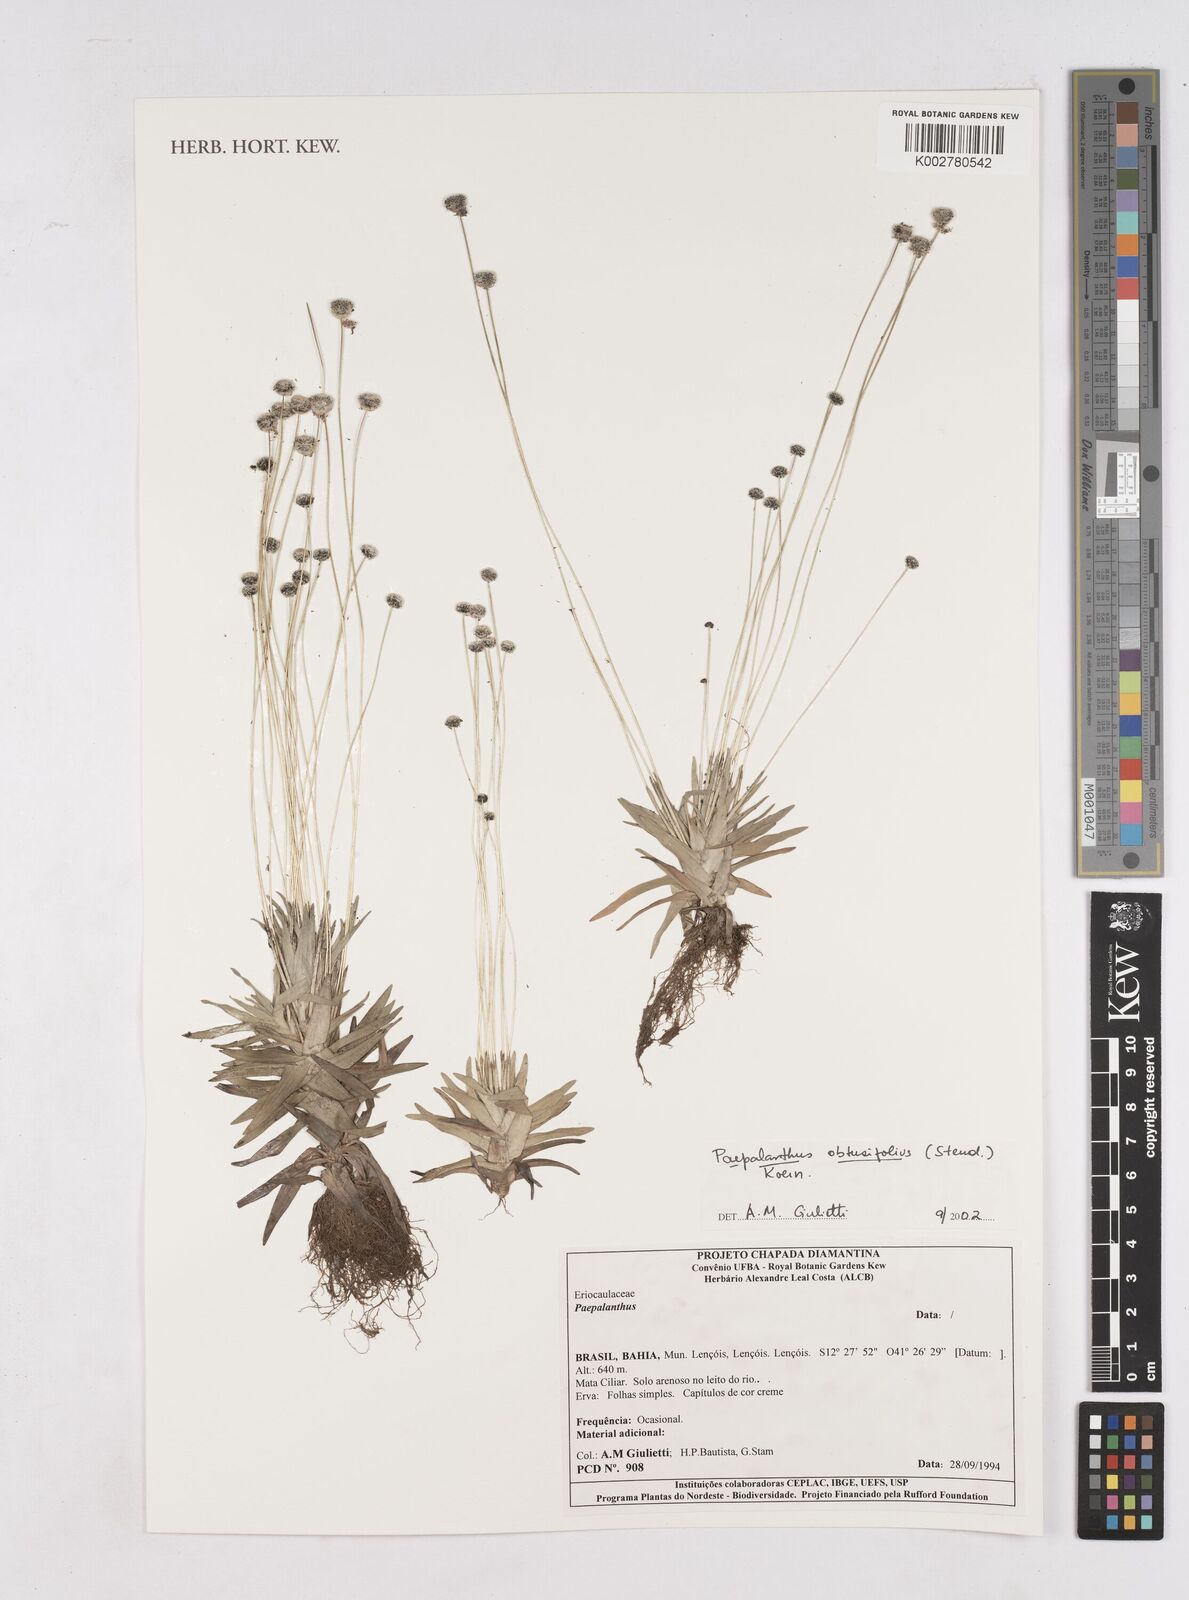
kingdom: Plantae
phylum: Tracheophyta
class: Liliopsida
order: Poales
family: Eriocaulaceae
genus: Paepalanthus
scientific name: Paepalanthus obtusifolius
